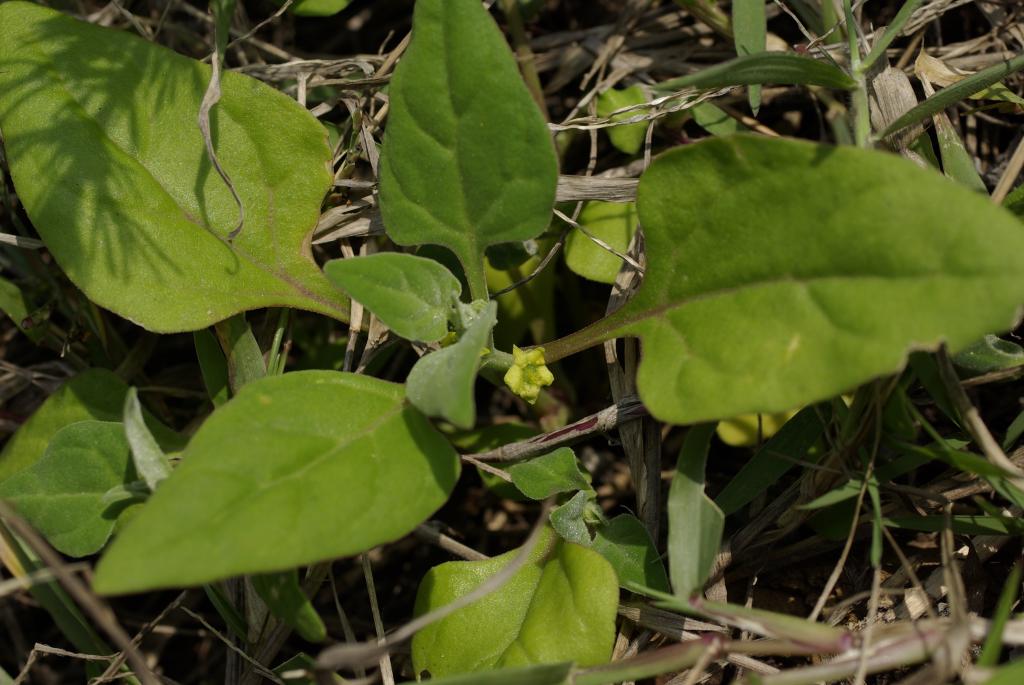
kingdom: Plantae
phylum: Tracheophyta
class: Magnoliopsida
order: Caryophyllales
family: Aizoaceae
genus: Tetragonia
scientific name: Tetragonia tetragonoides
